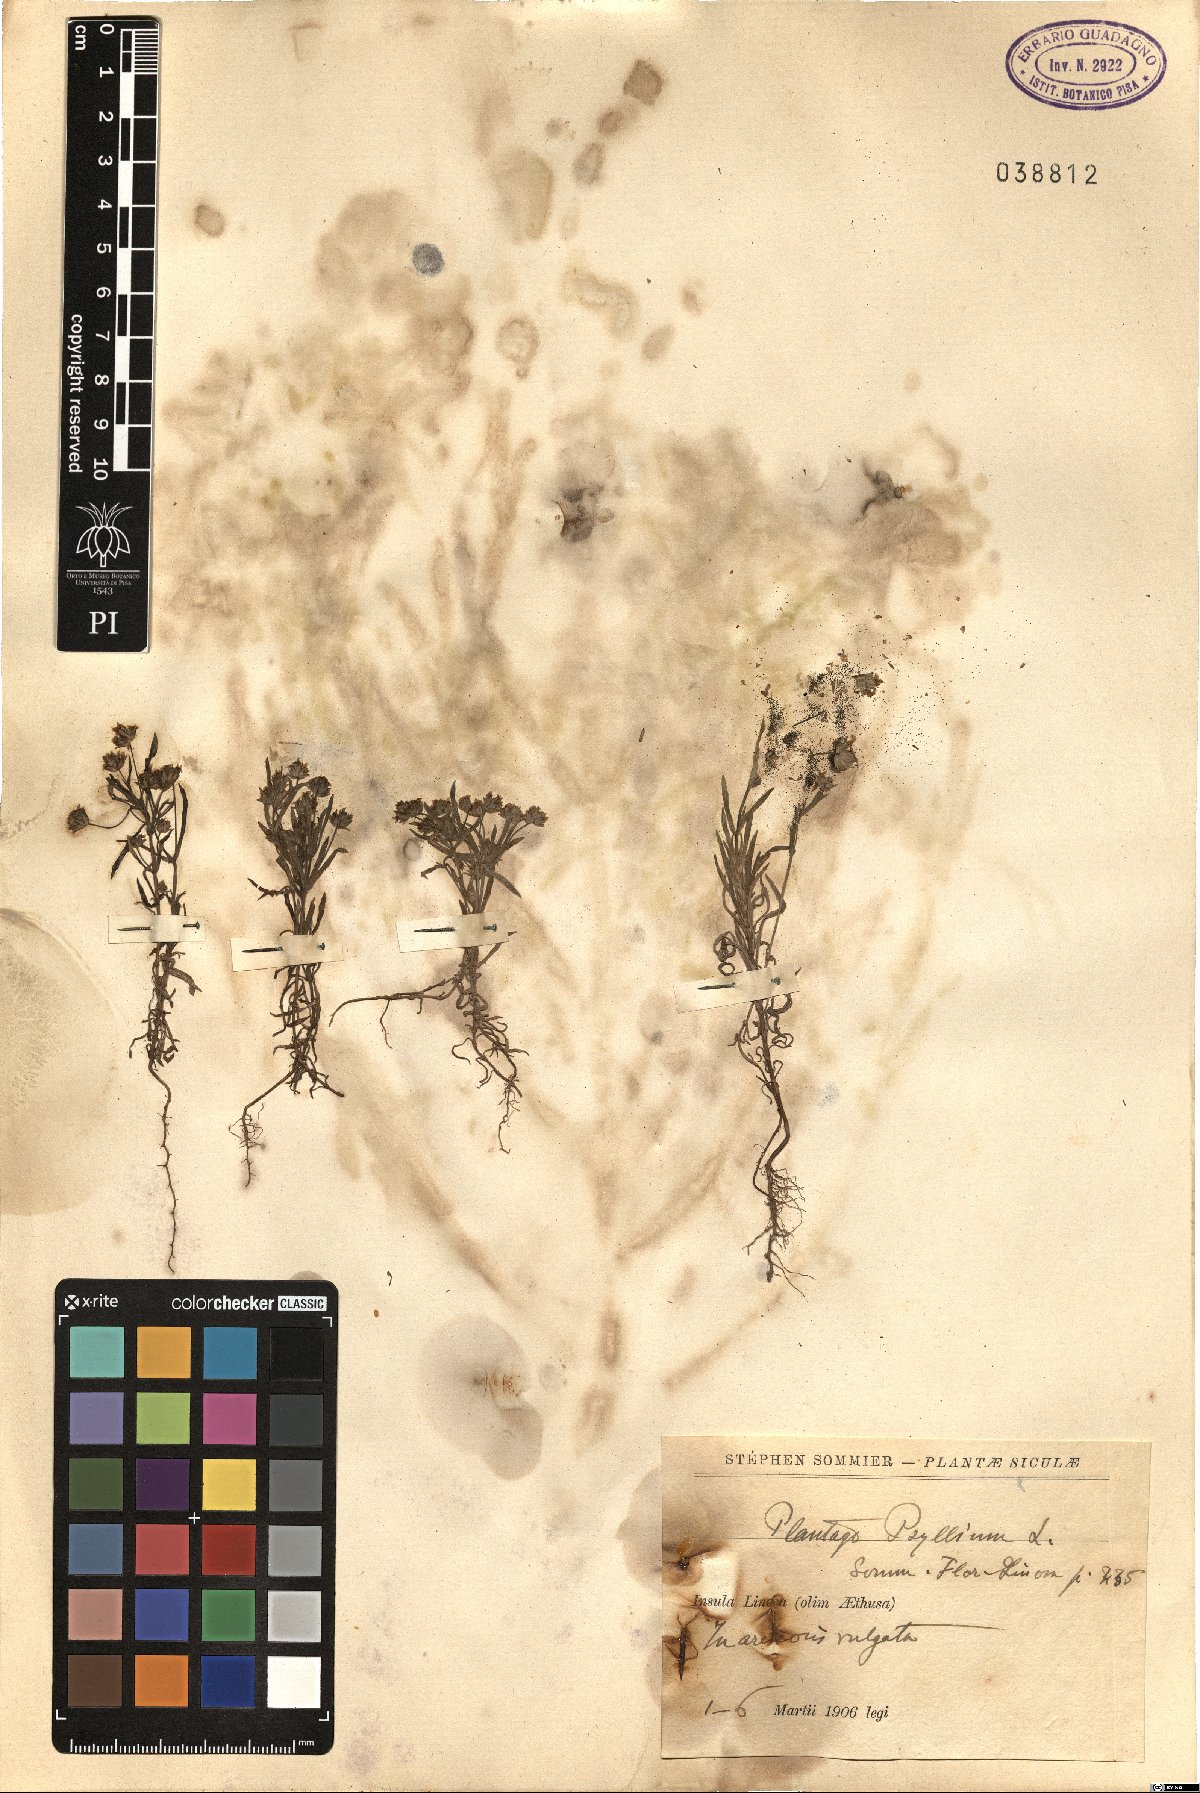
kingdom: Plantae
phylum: Tracheophyta
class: Magnoliopsida
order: Lamiales
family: Plantaginaceae
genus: Plantago
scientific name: Plantago
